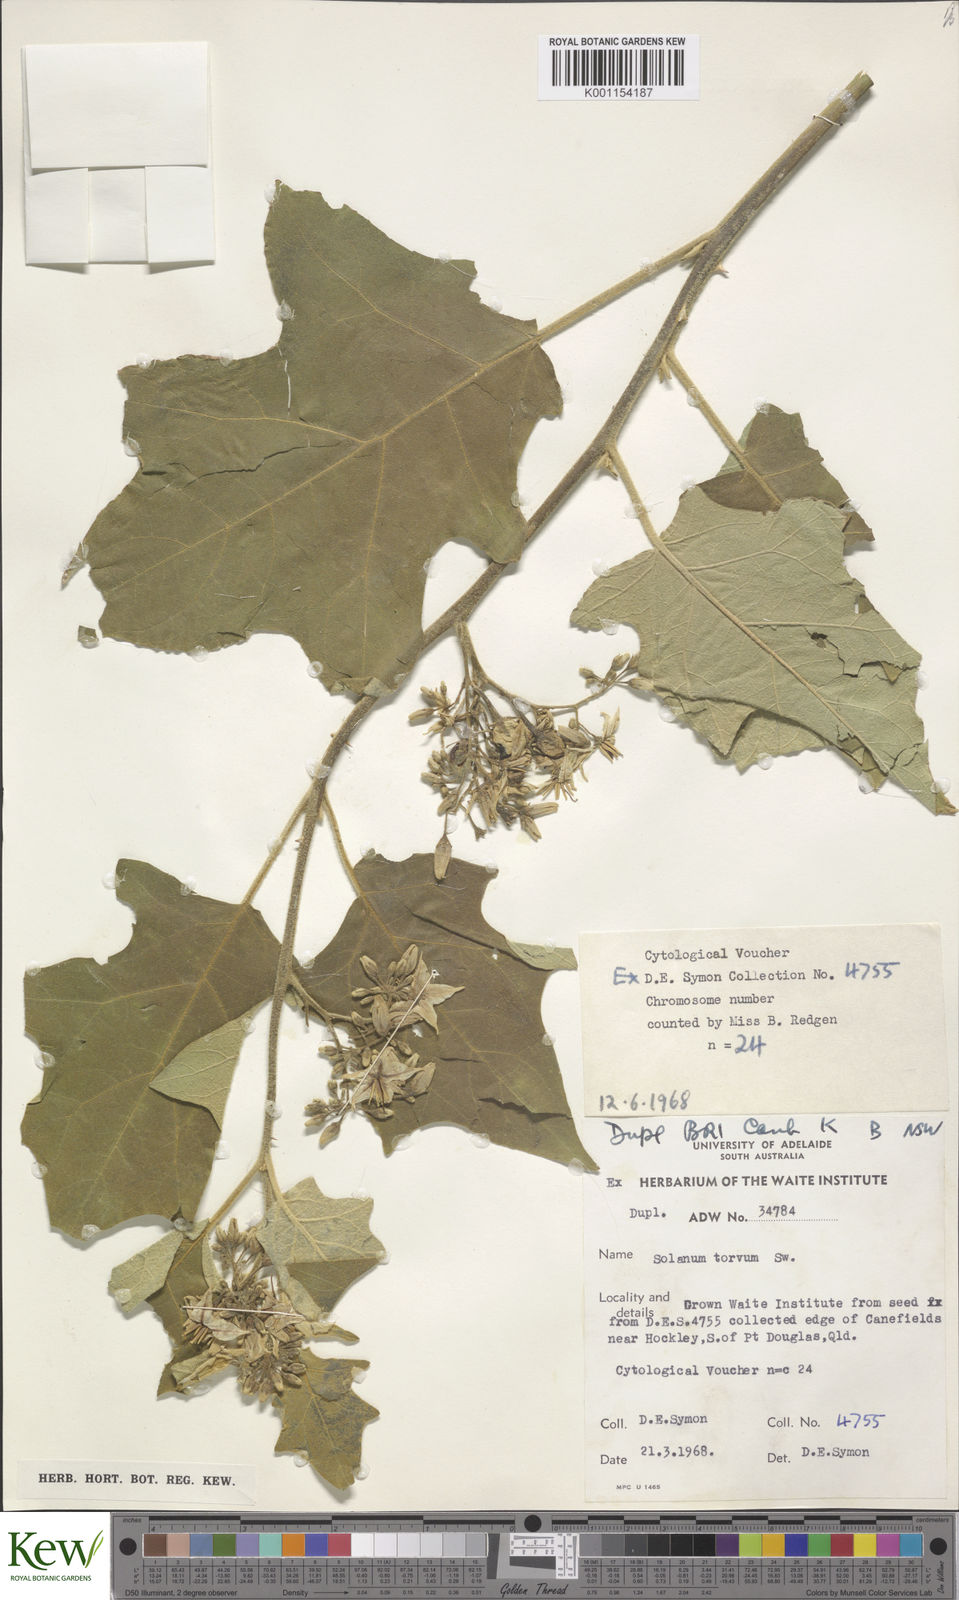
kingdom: Plantae
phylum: Tracheophyta
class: Magnoliopsida
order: Solanales
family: Solanaceae
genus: Solanum
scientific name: Solanum torvum
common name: Turkey berry
